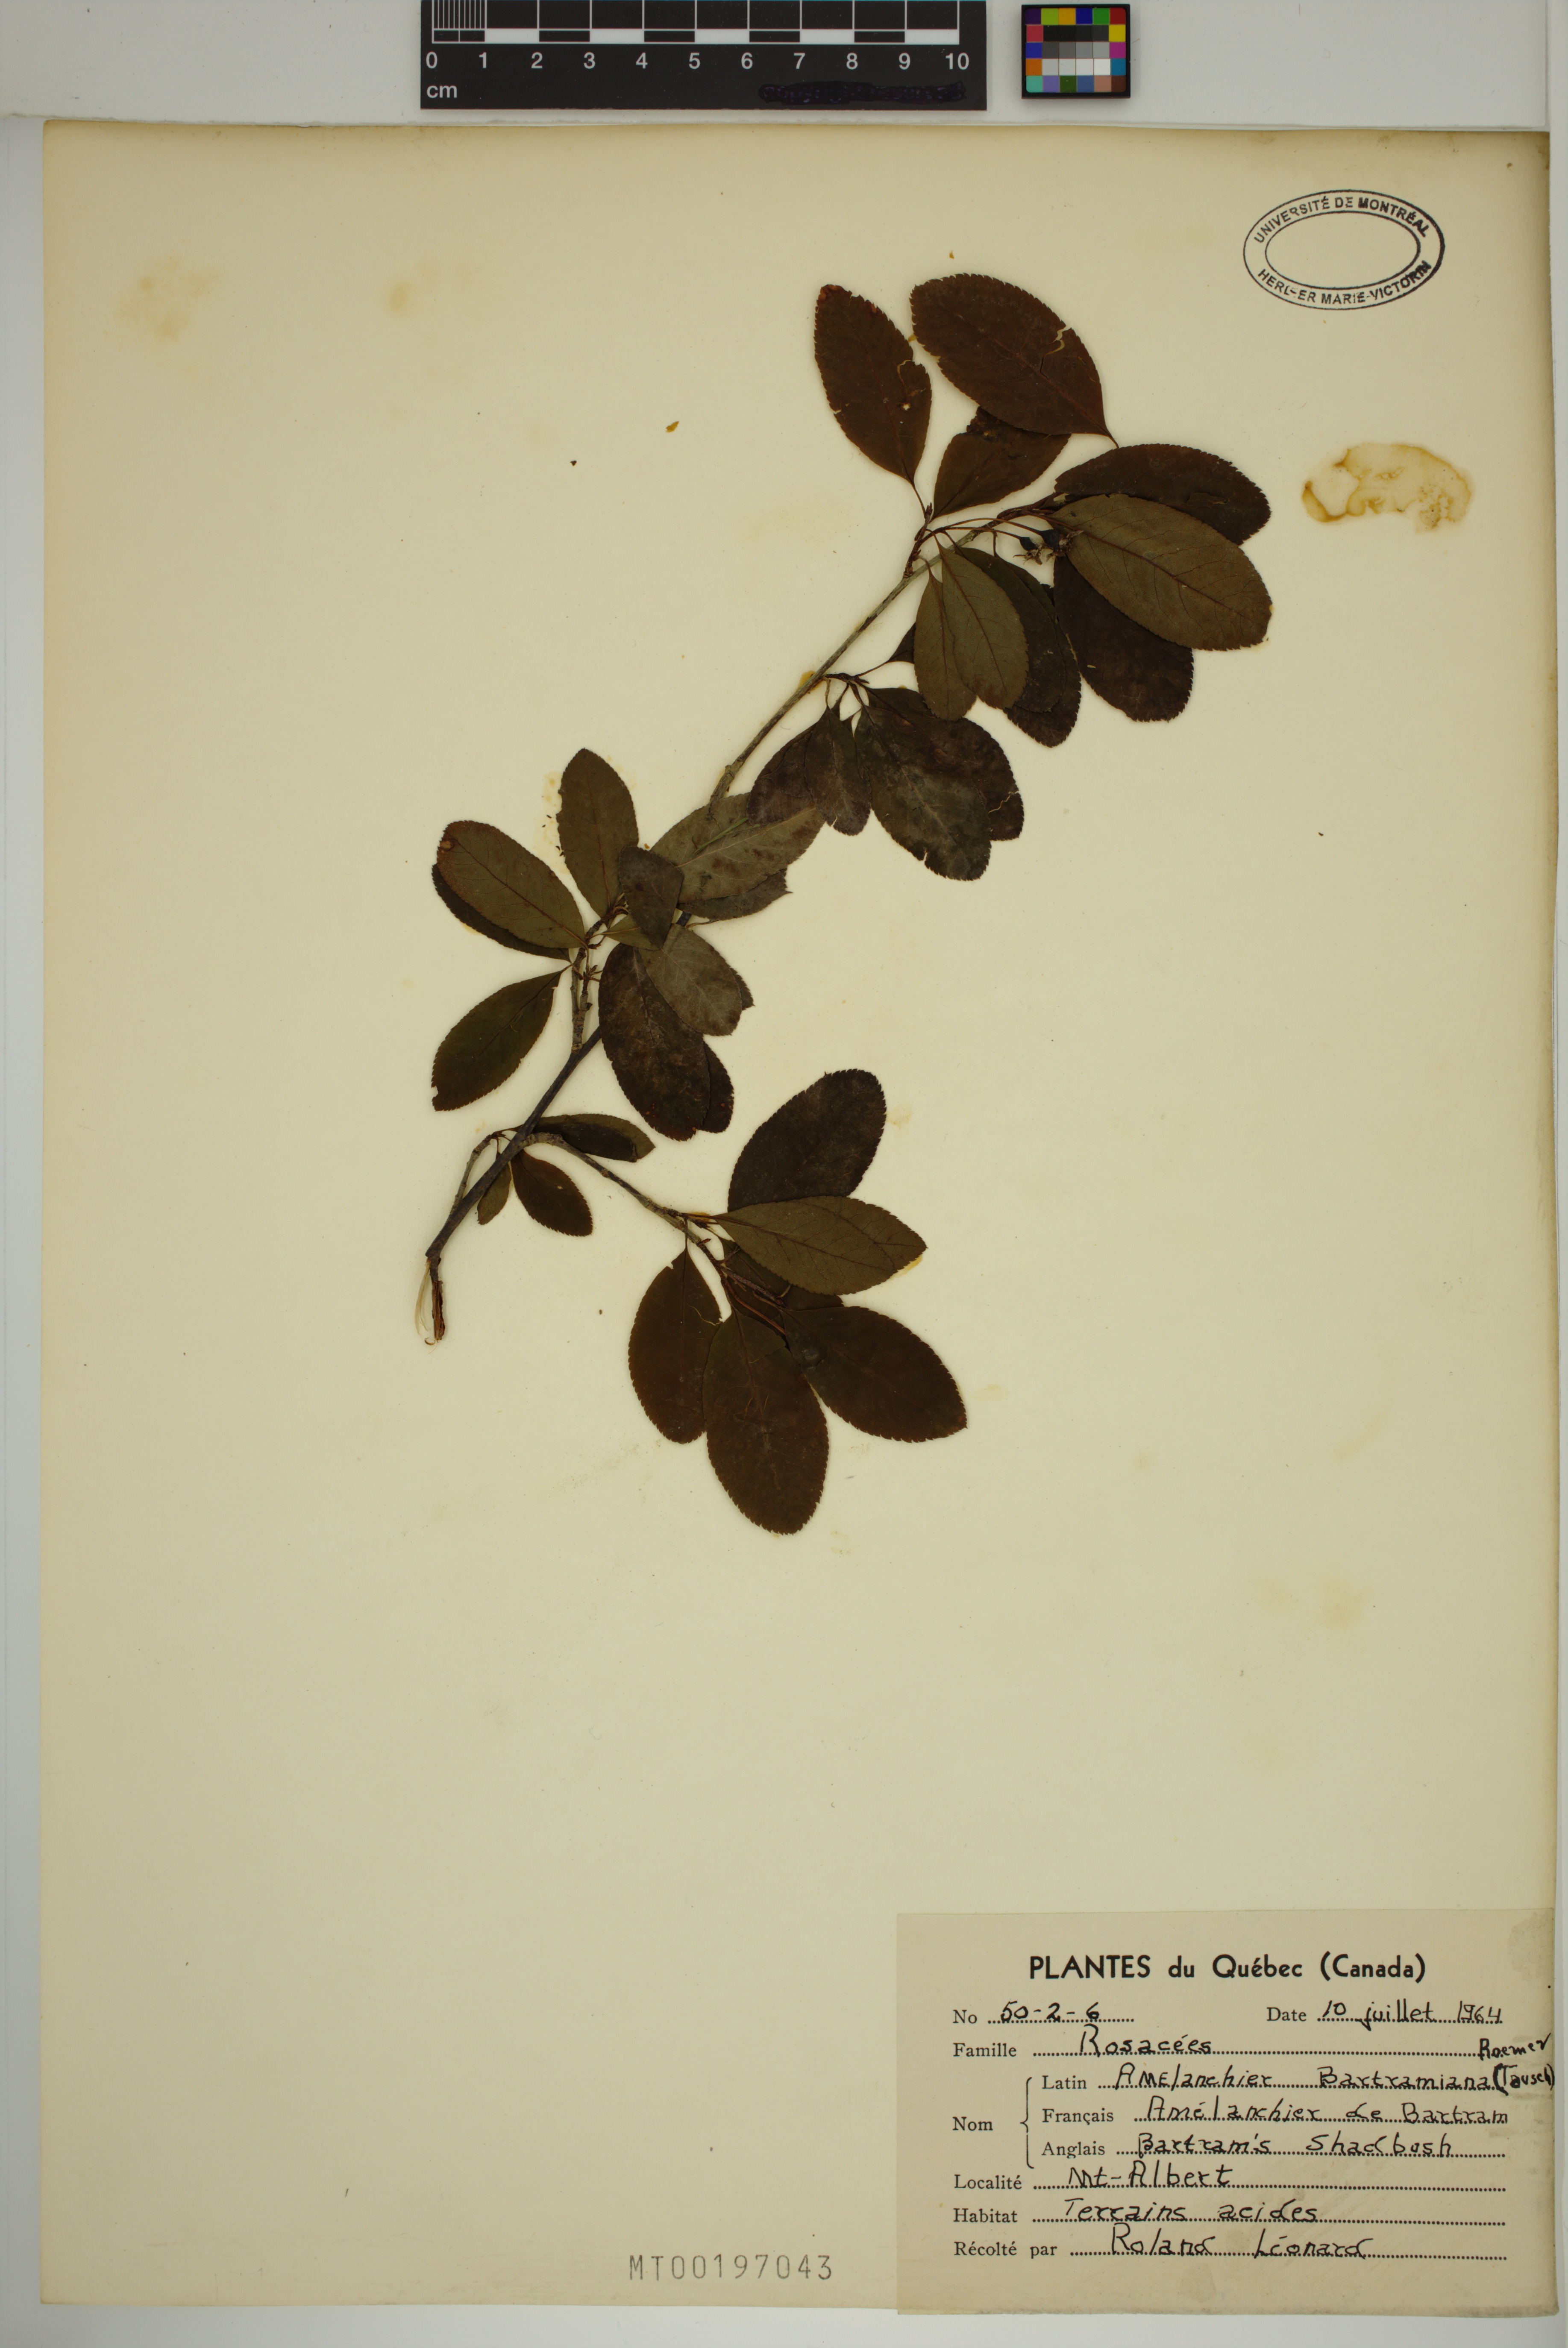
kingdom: Plantae
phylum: Tracheophyta
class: Magnoliopsida
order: Rosales
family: Rosaceae
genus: Amelanchier
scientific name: Amelanchier bartramiana
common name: Mountain serviceberry
